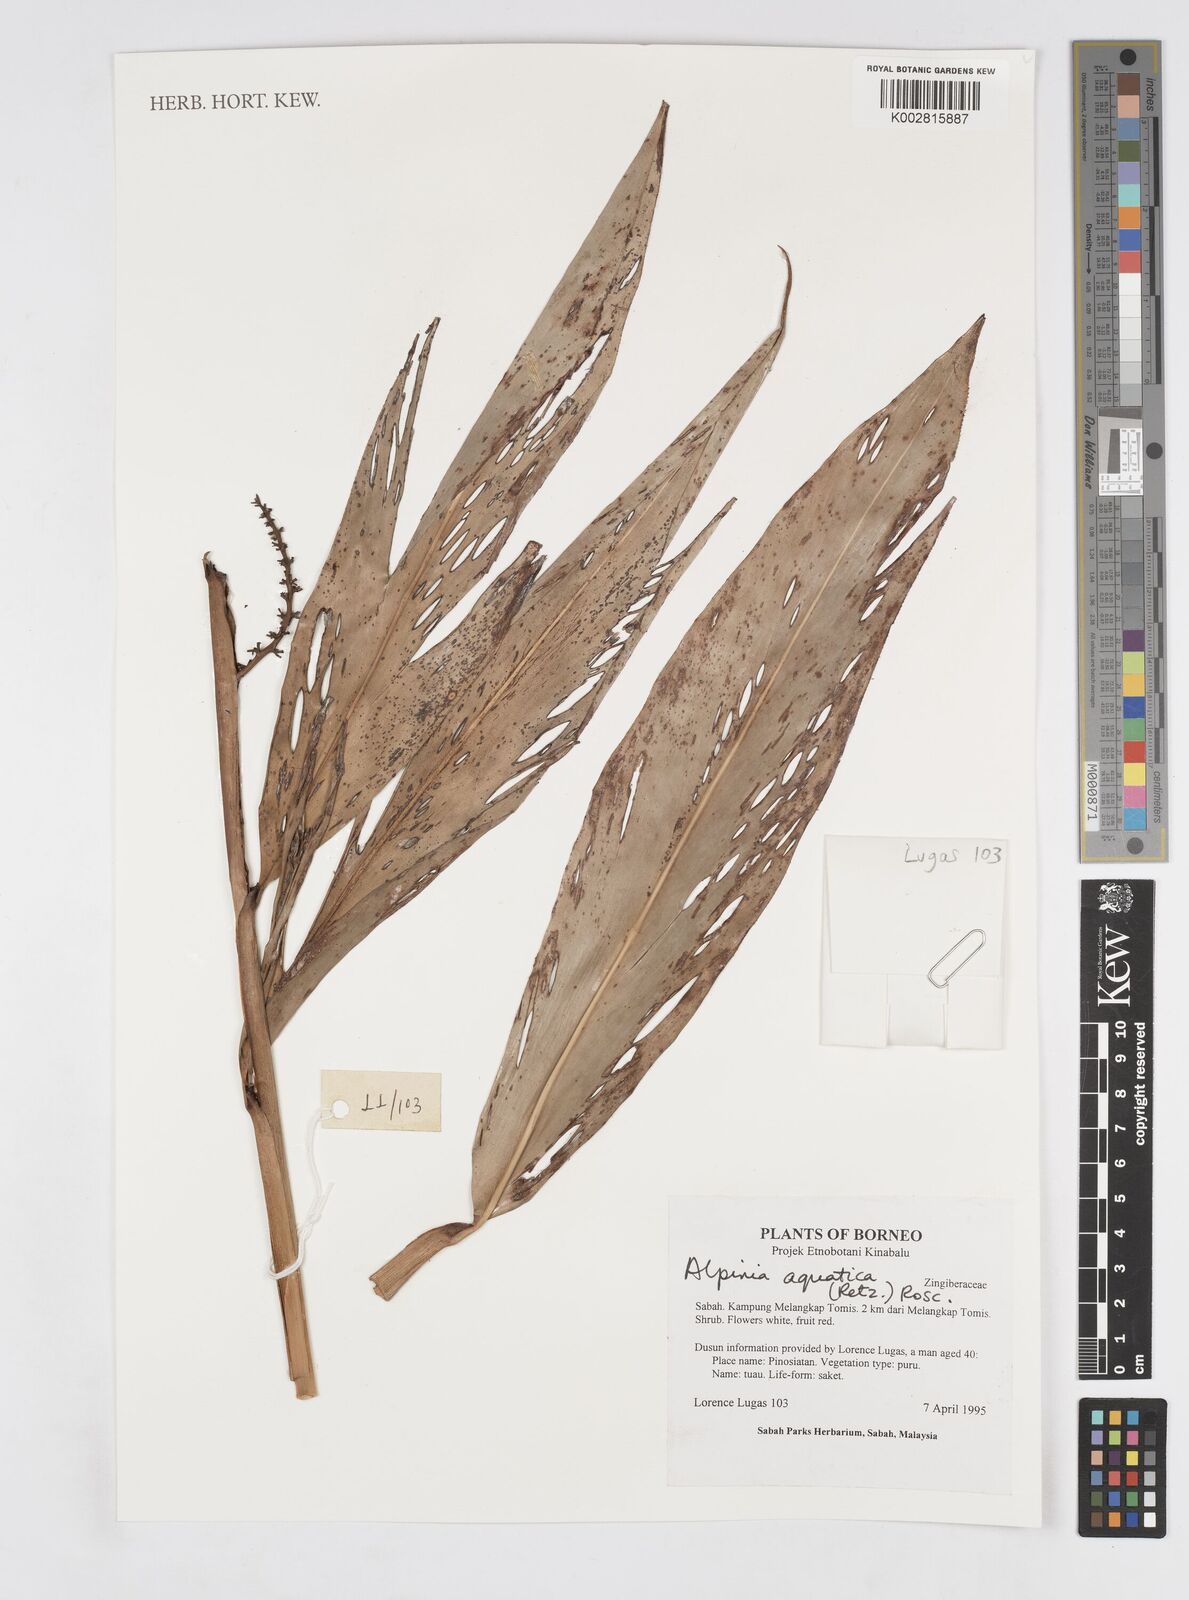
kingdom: Plantae
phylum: Tracheophyta
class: Liliopsida
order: Zingiberales
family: Zingiberaceae
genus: Alpinia
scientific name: Alpinia aquatica
